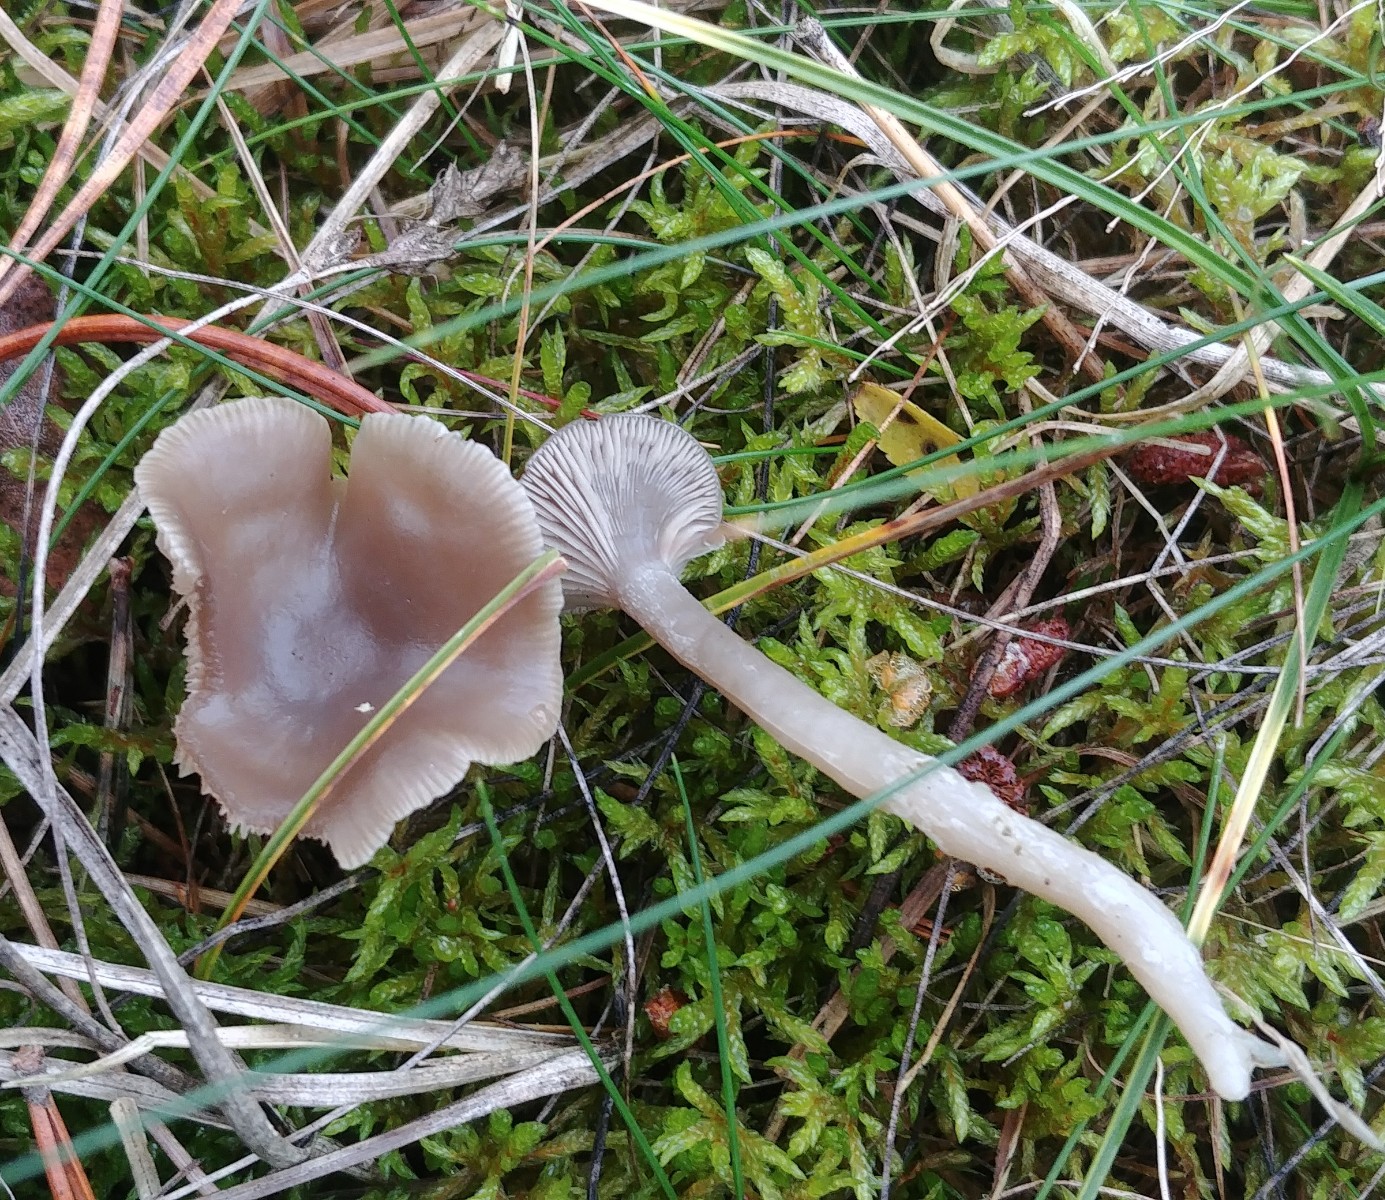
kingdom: Fungi
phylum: Basidiomycota
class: Agaricomycetes
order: Agaricales
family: Tricholomataceae
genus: Clitocybe
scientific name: Clitocybe
